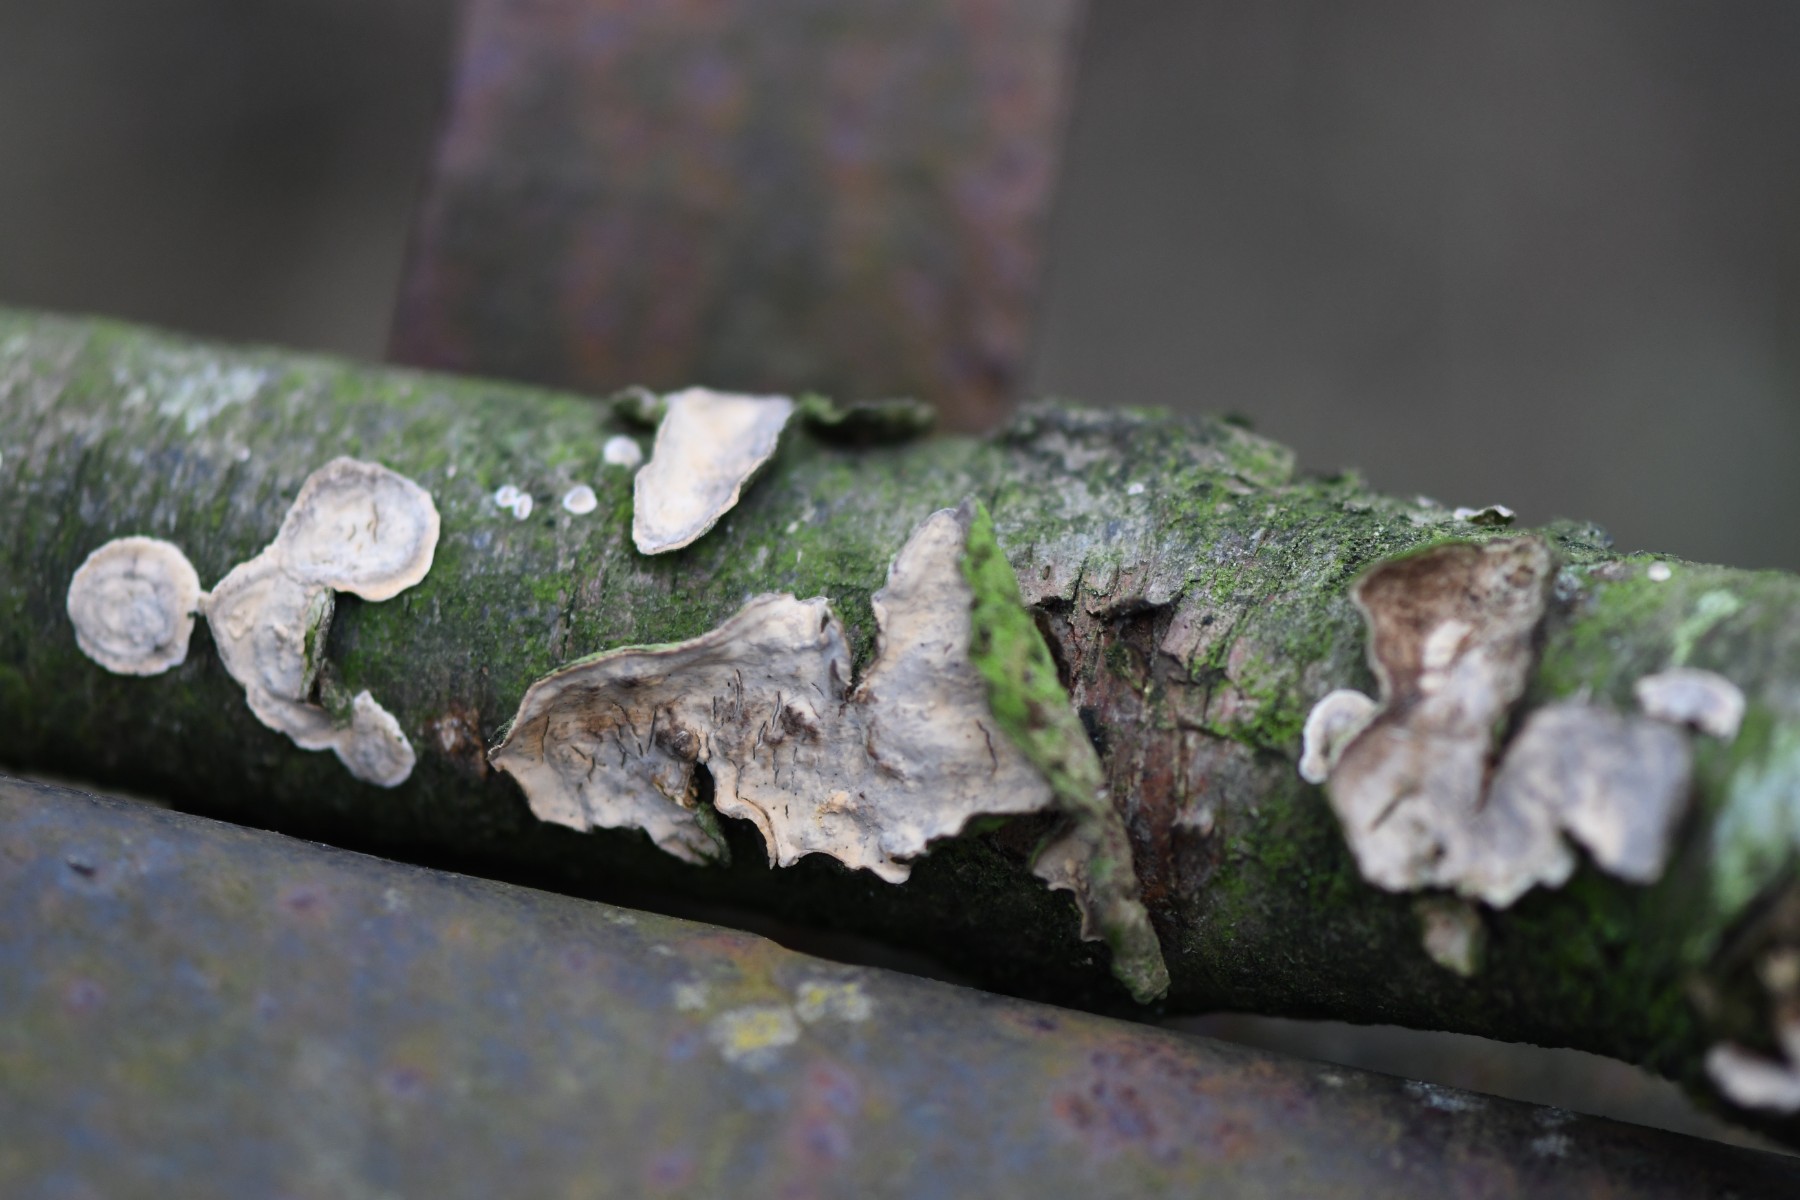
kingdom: Fungi
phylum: Basidiomycota
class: Agaricomycetes
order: Russulales
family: Stereaceae
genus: Stereum
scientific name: Stereum
